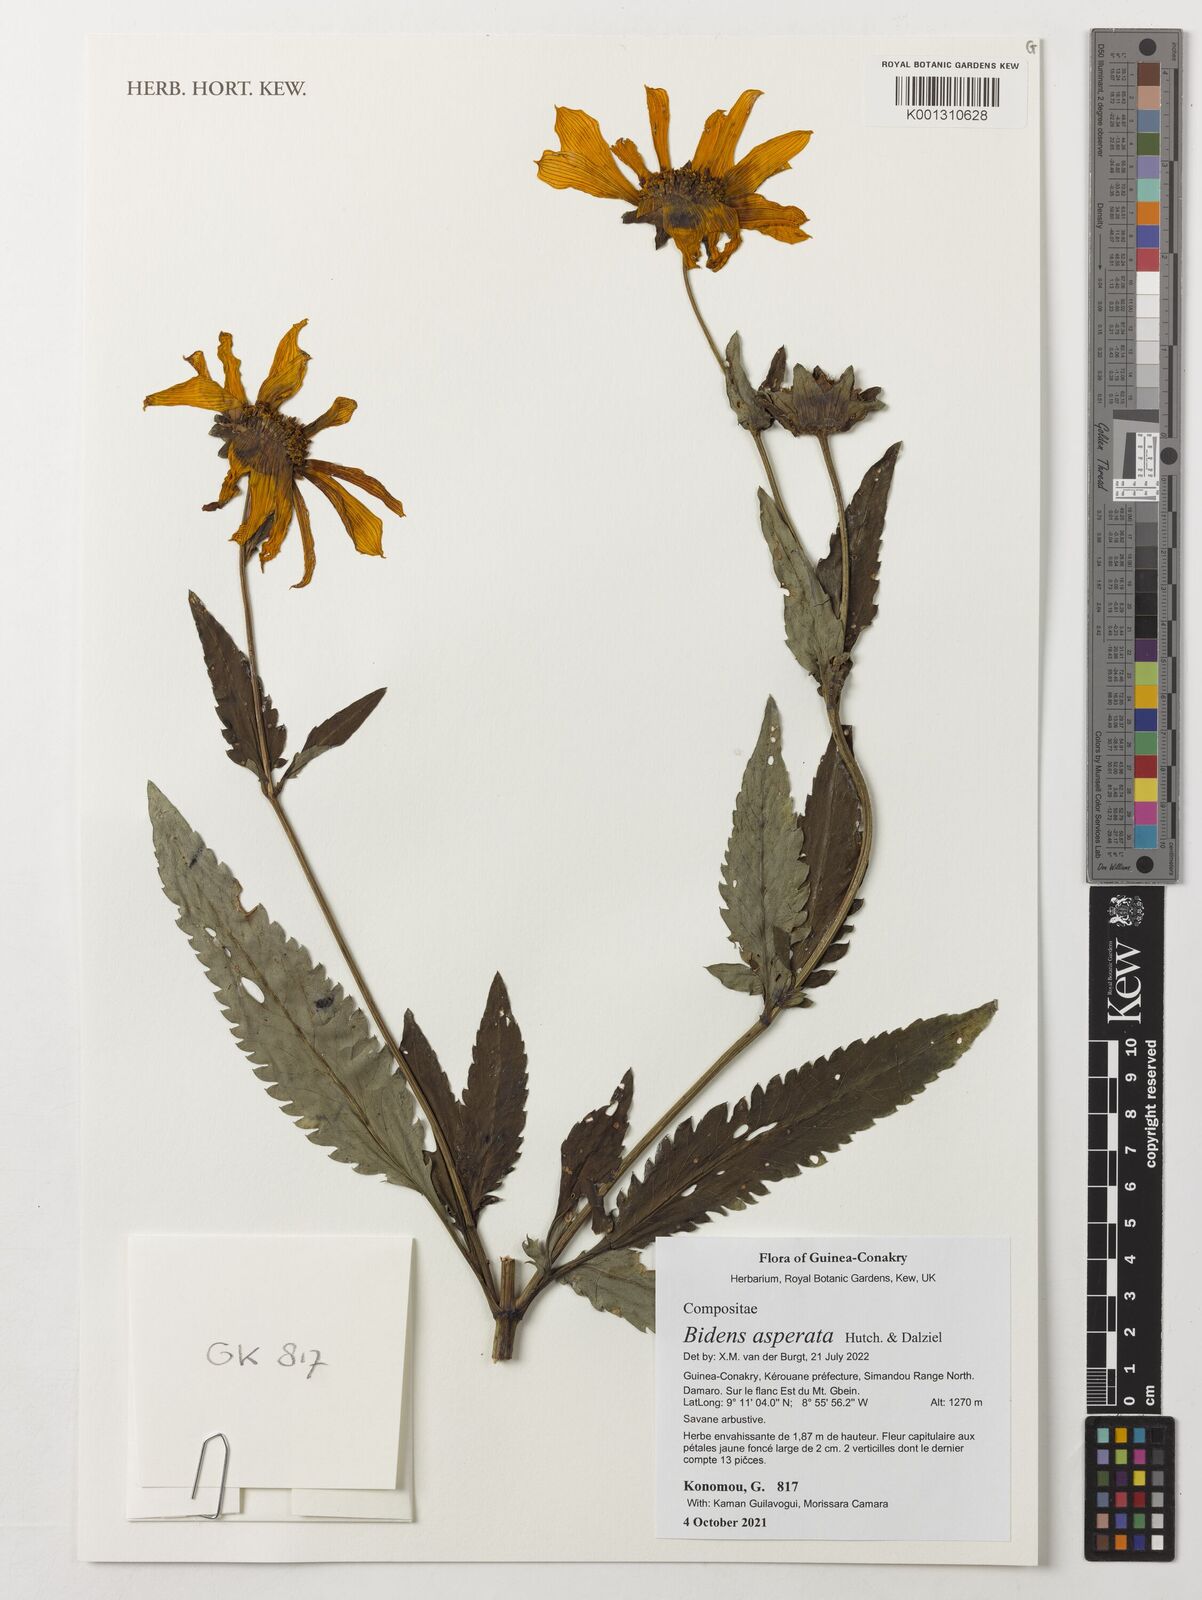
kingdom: Plantae
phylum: Tracheophyta
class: Magnoliopsida
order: Asterales
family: Asteraceae
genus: Bidens
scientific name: Bidens asperata
